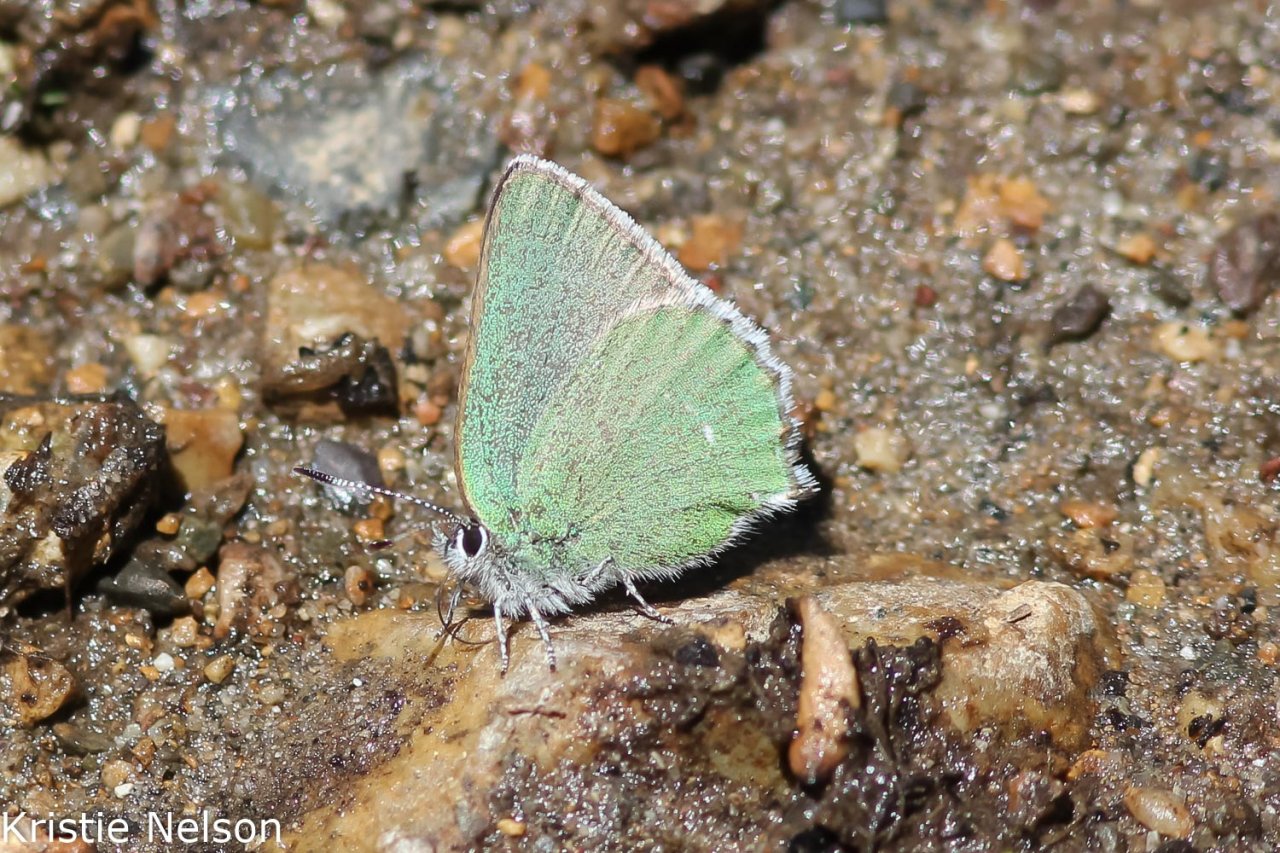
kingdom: Animalia
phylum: Arthropoda
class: Insecta
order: Lepidoptera
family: Lycaenidae
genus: Thecla
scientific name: Thecla sheridanii
